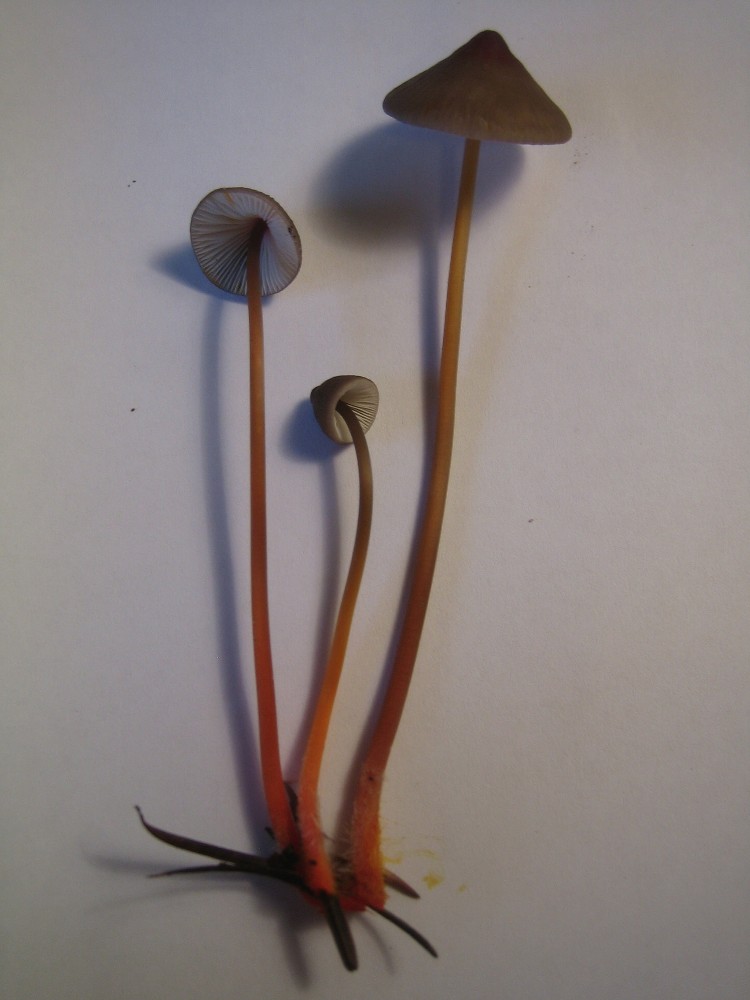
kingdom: Fungi
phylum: Basidiomycota
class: Agaricomycetes
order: Agaricales
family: Mycenaceae
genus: Mycena
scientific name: Mycena crocata
